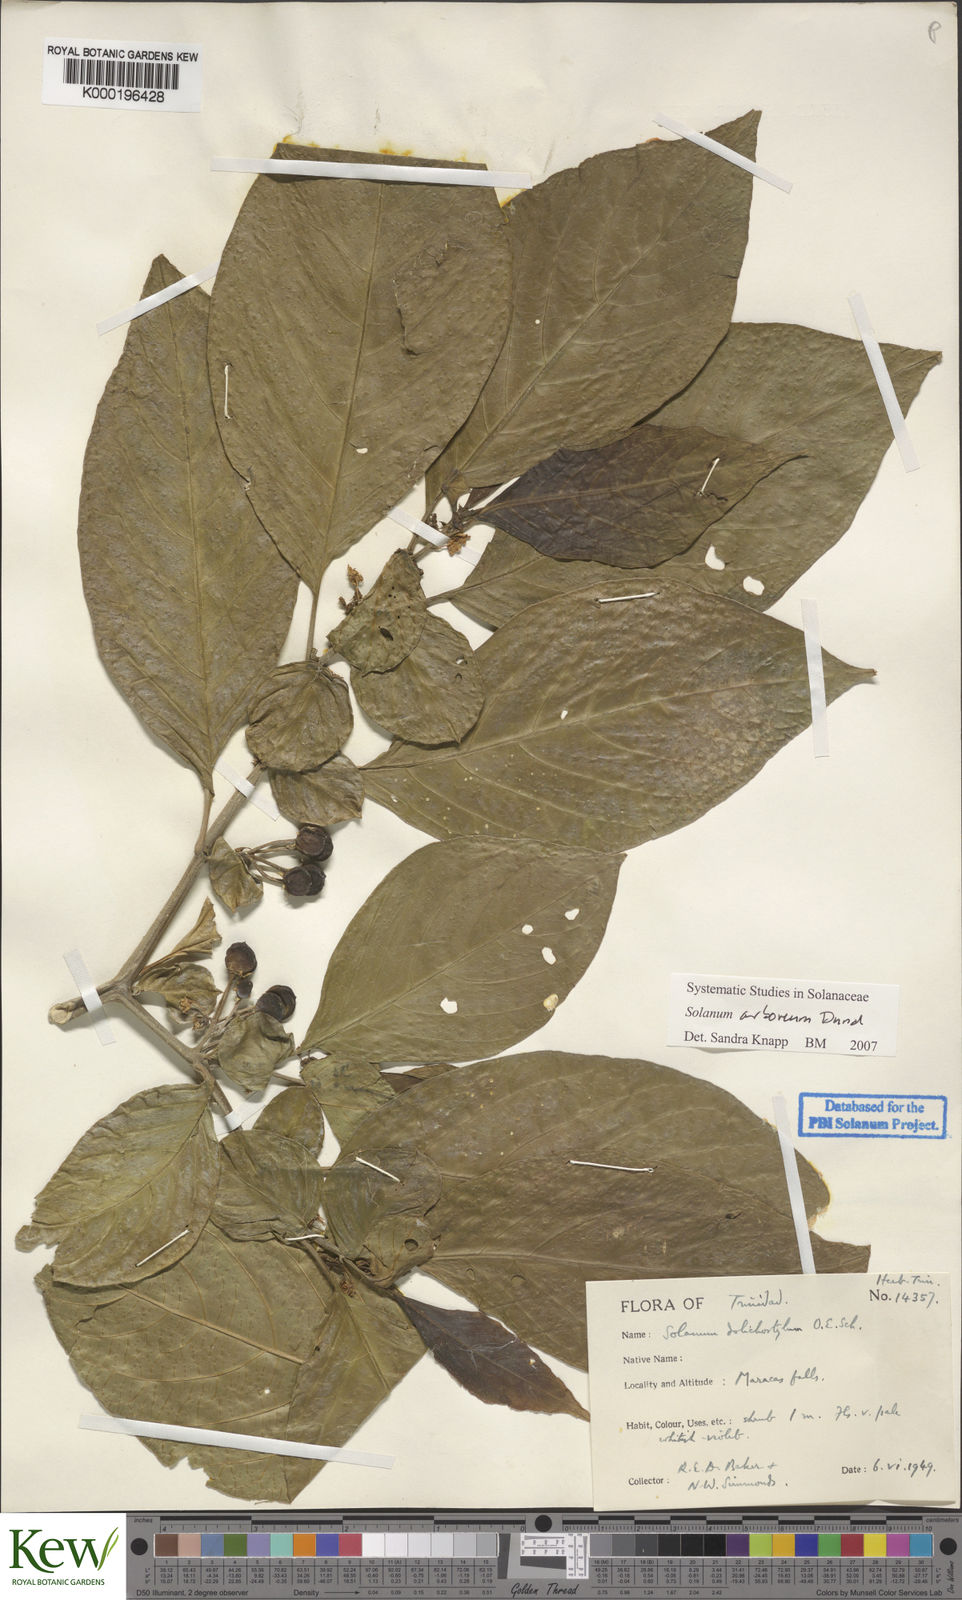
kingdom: Plantae
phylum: Tracheophyta
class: Magnoliopsida
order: Solanales
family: Solanaceae
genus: Solanum
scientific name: Solanum arboreum
